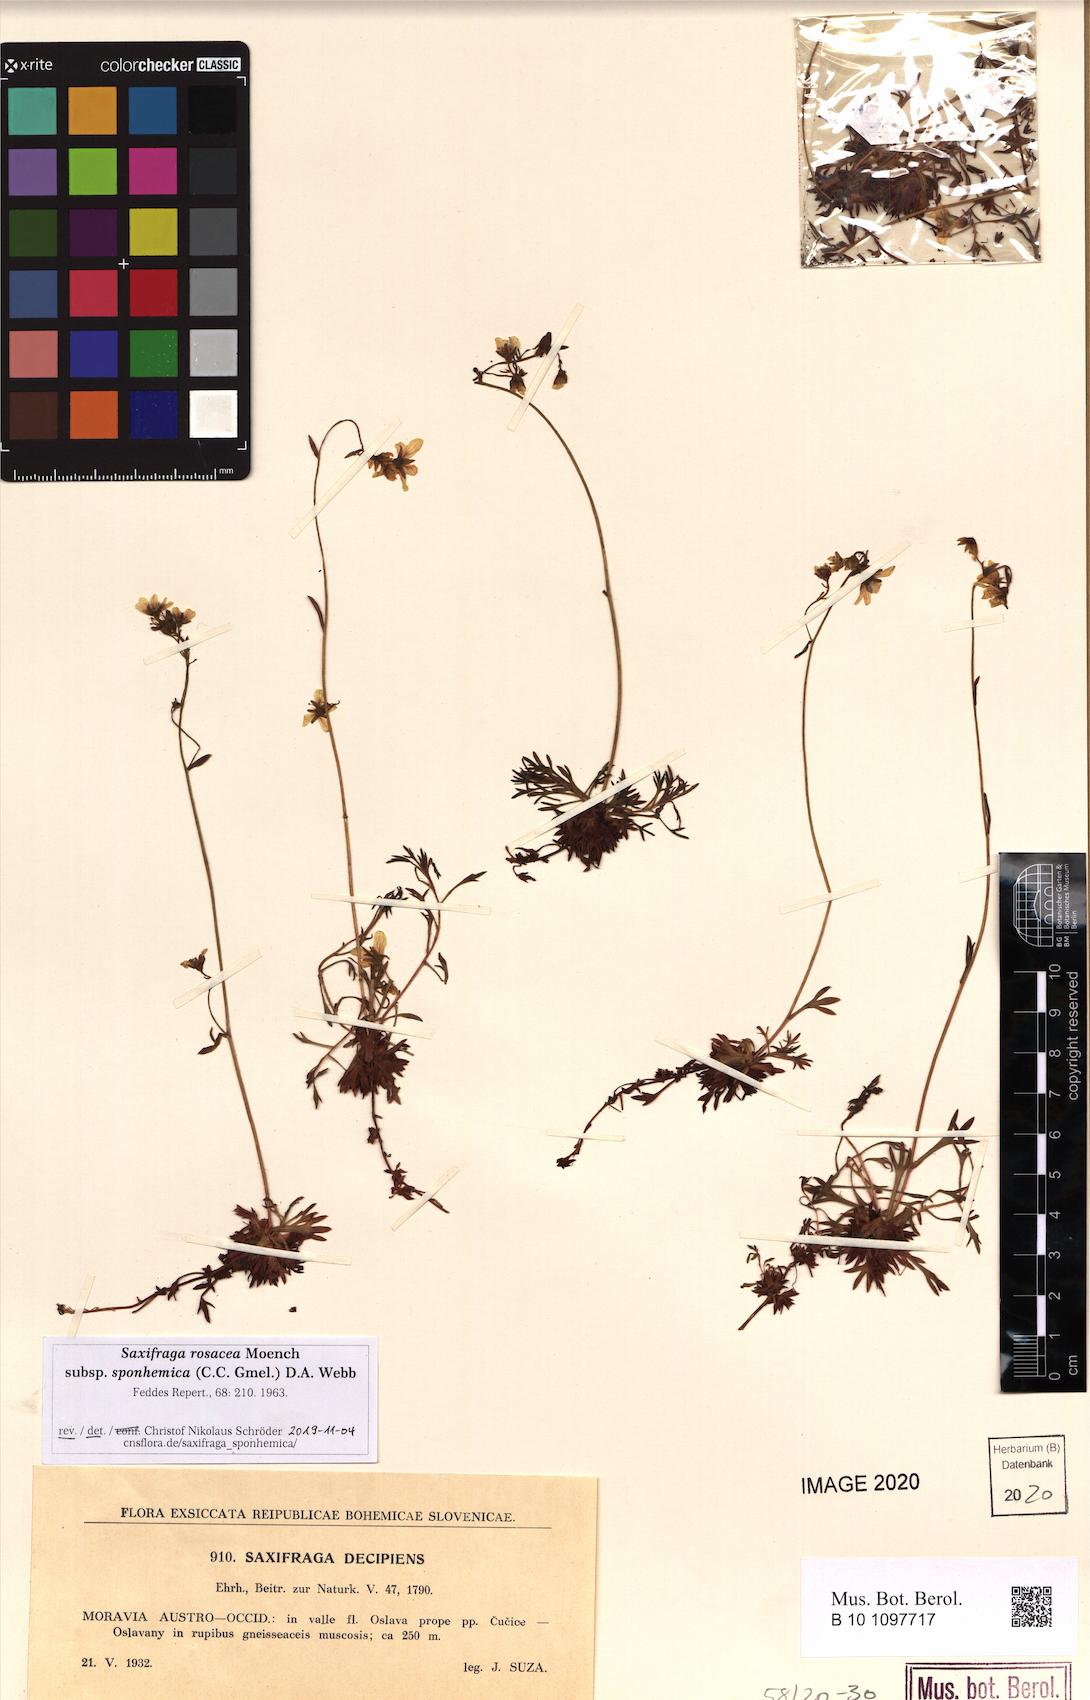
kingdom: Plantae
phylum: Tracheophyta
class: Magnoliopsida
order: Saxifragales
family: Saxifragaceae
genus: Saxifraga
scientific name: Saxifraga rosacea
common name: Irish saxifrage
